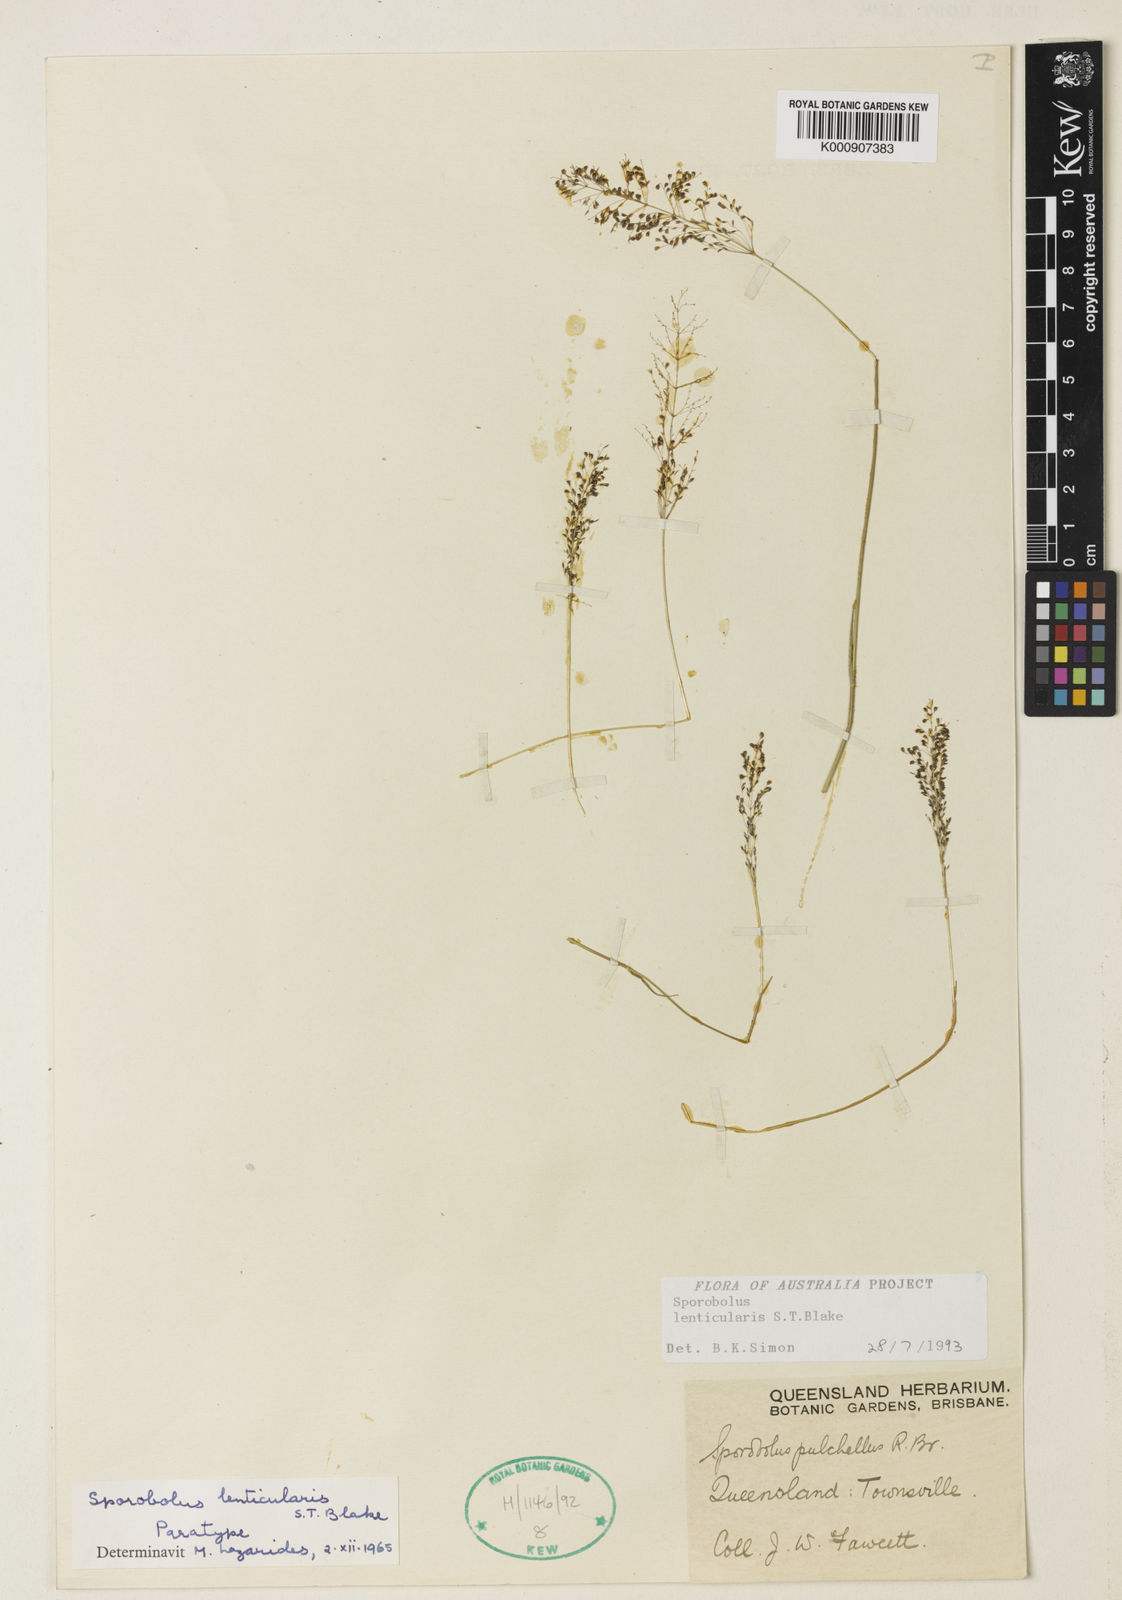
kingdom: Plantae
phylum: Tracheophyta
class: Liliopsida
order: Poales
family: Poaceae
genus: Sporobolus
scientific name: Sporobolus lenticularis
